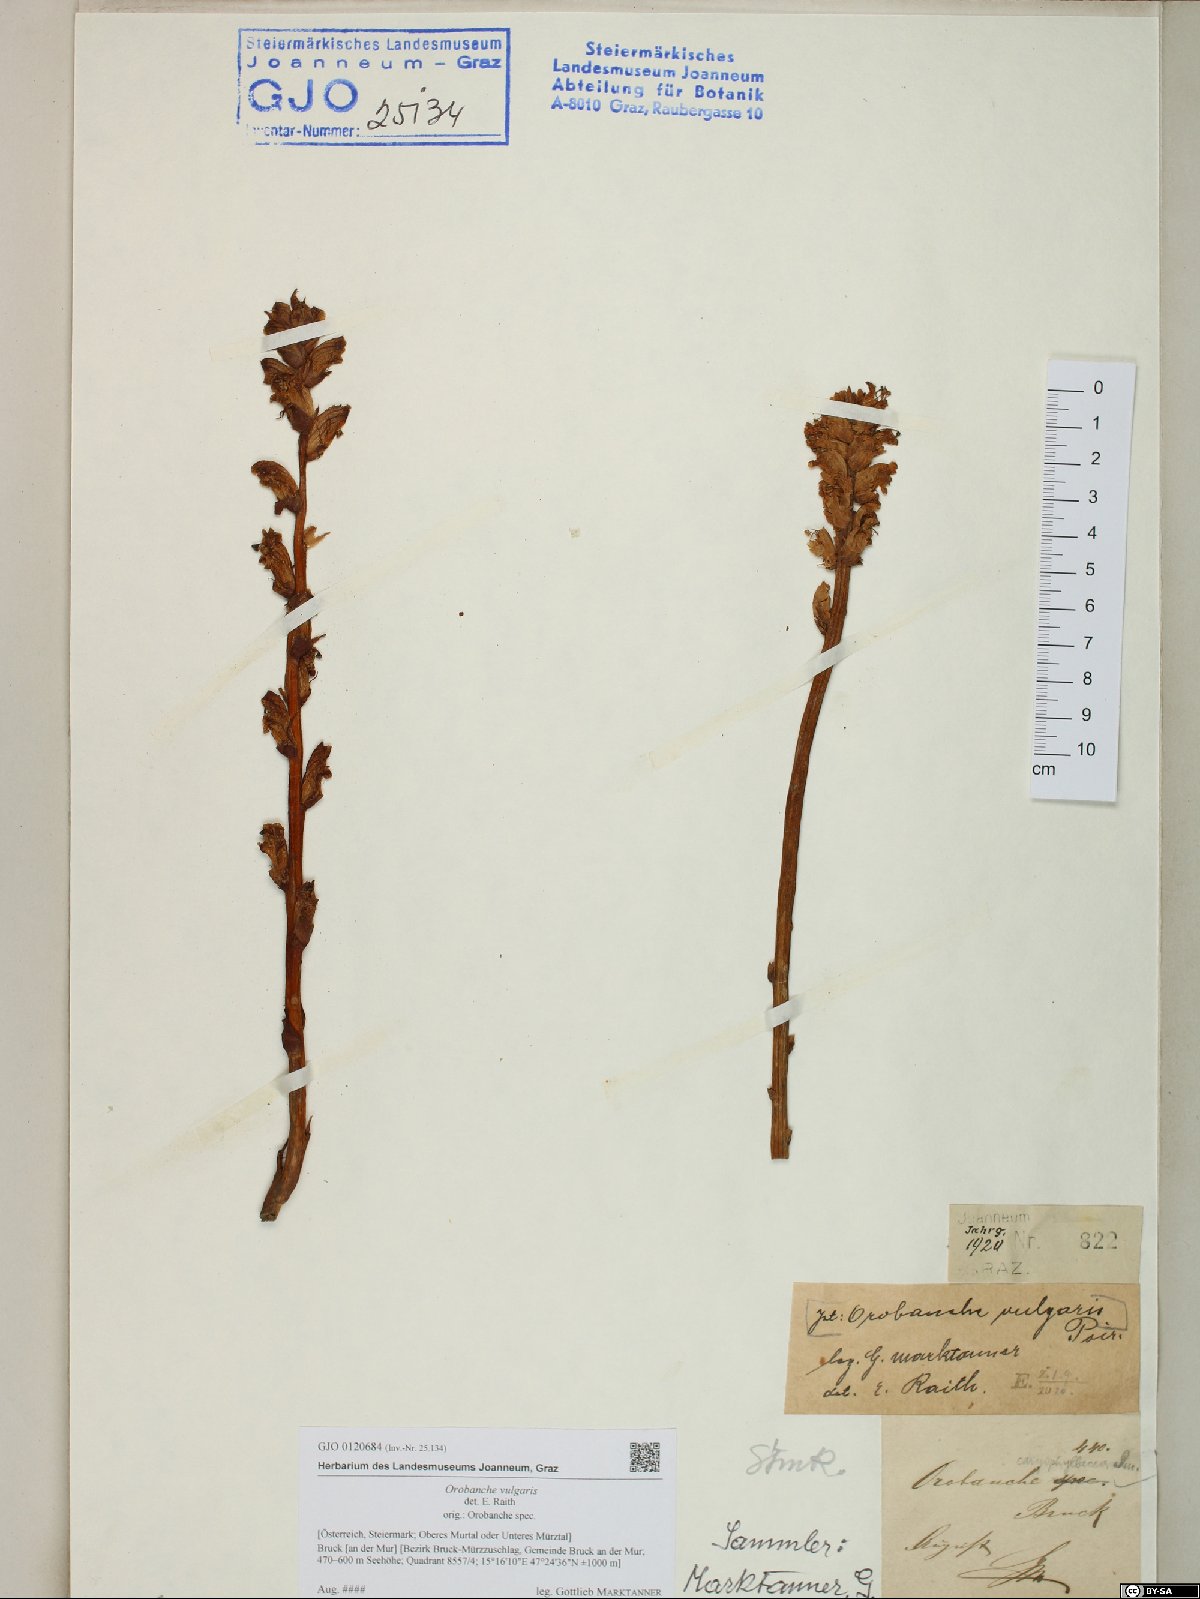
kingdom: Plantae
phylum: Tracheophyta
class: Magnoliopsida
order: Lamiales
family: Orobanchaceae
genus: Orobanche
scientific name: Orobanche caryophyllacea
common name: Bedstraw broomrape
